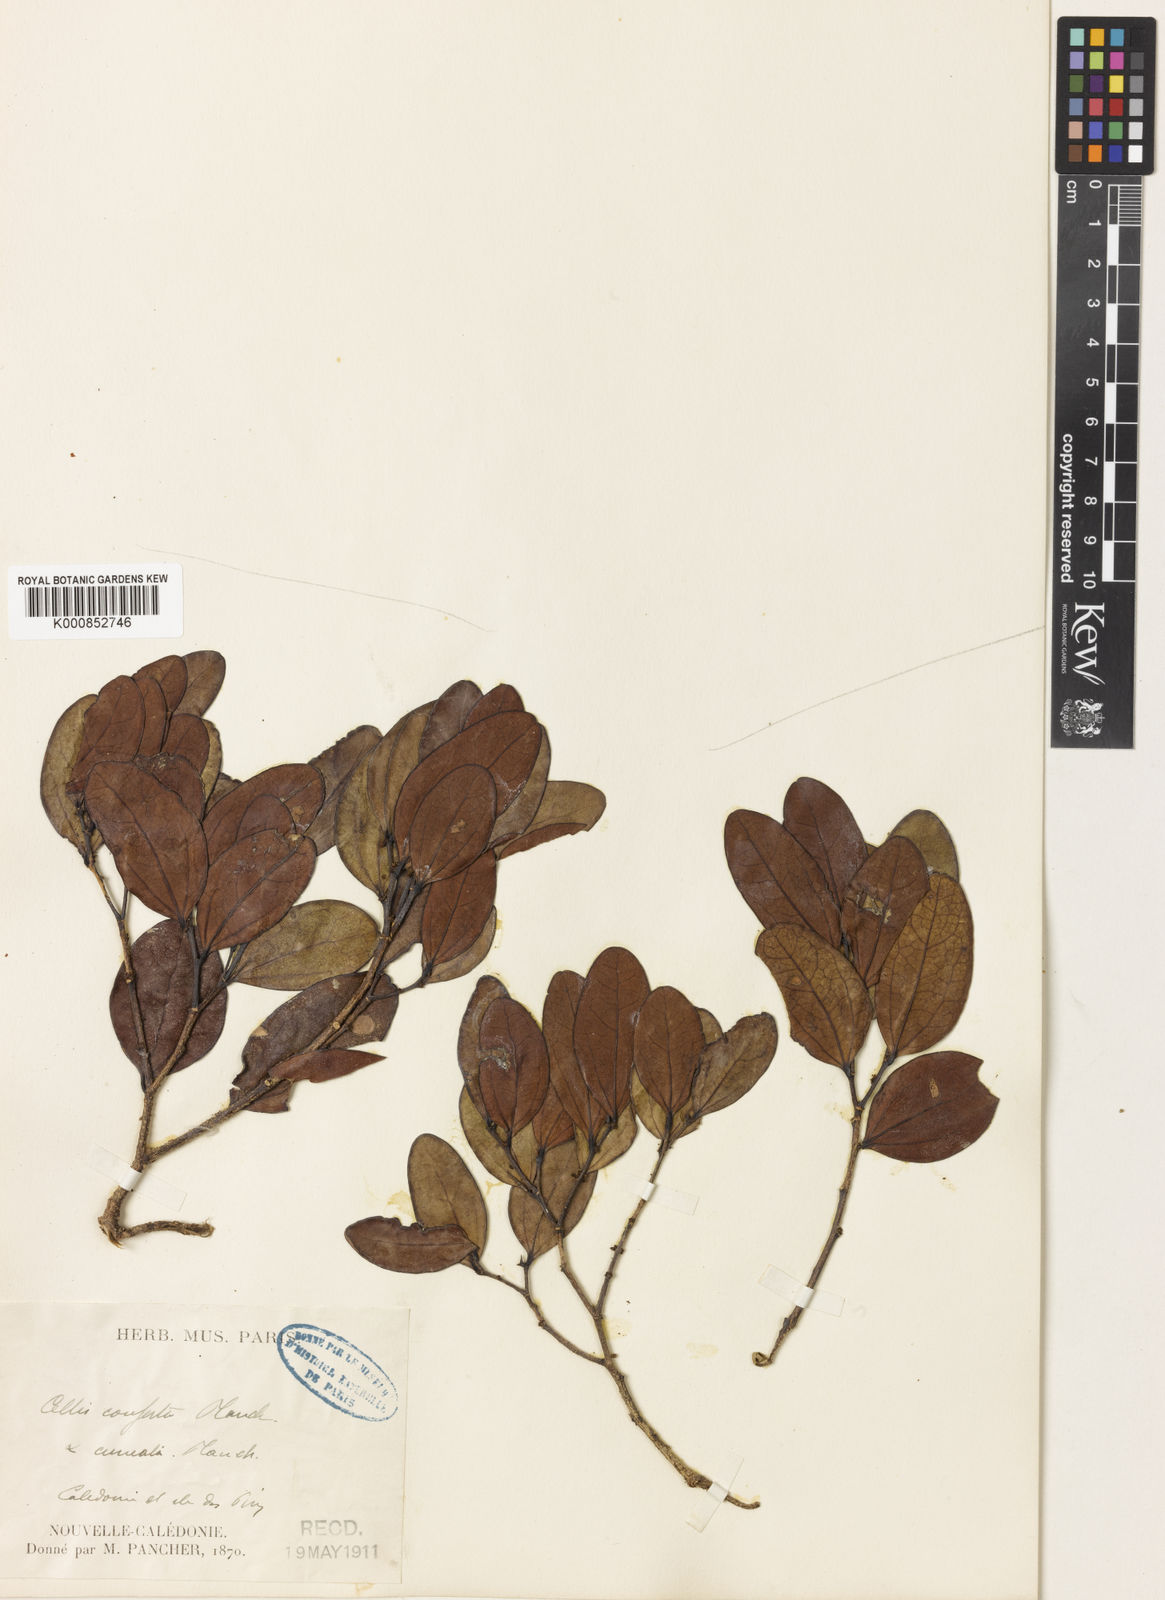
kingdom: Plantae
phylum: Tracheophyta
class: Magnoliopsida
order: Rosales
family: Cannabaceae
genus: Celtis
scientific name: Celtis conferta
